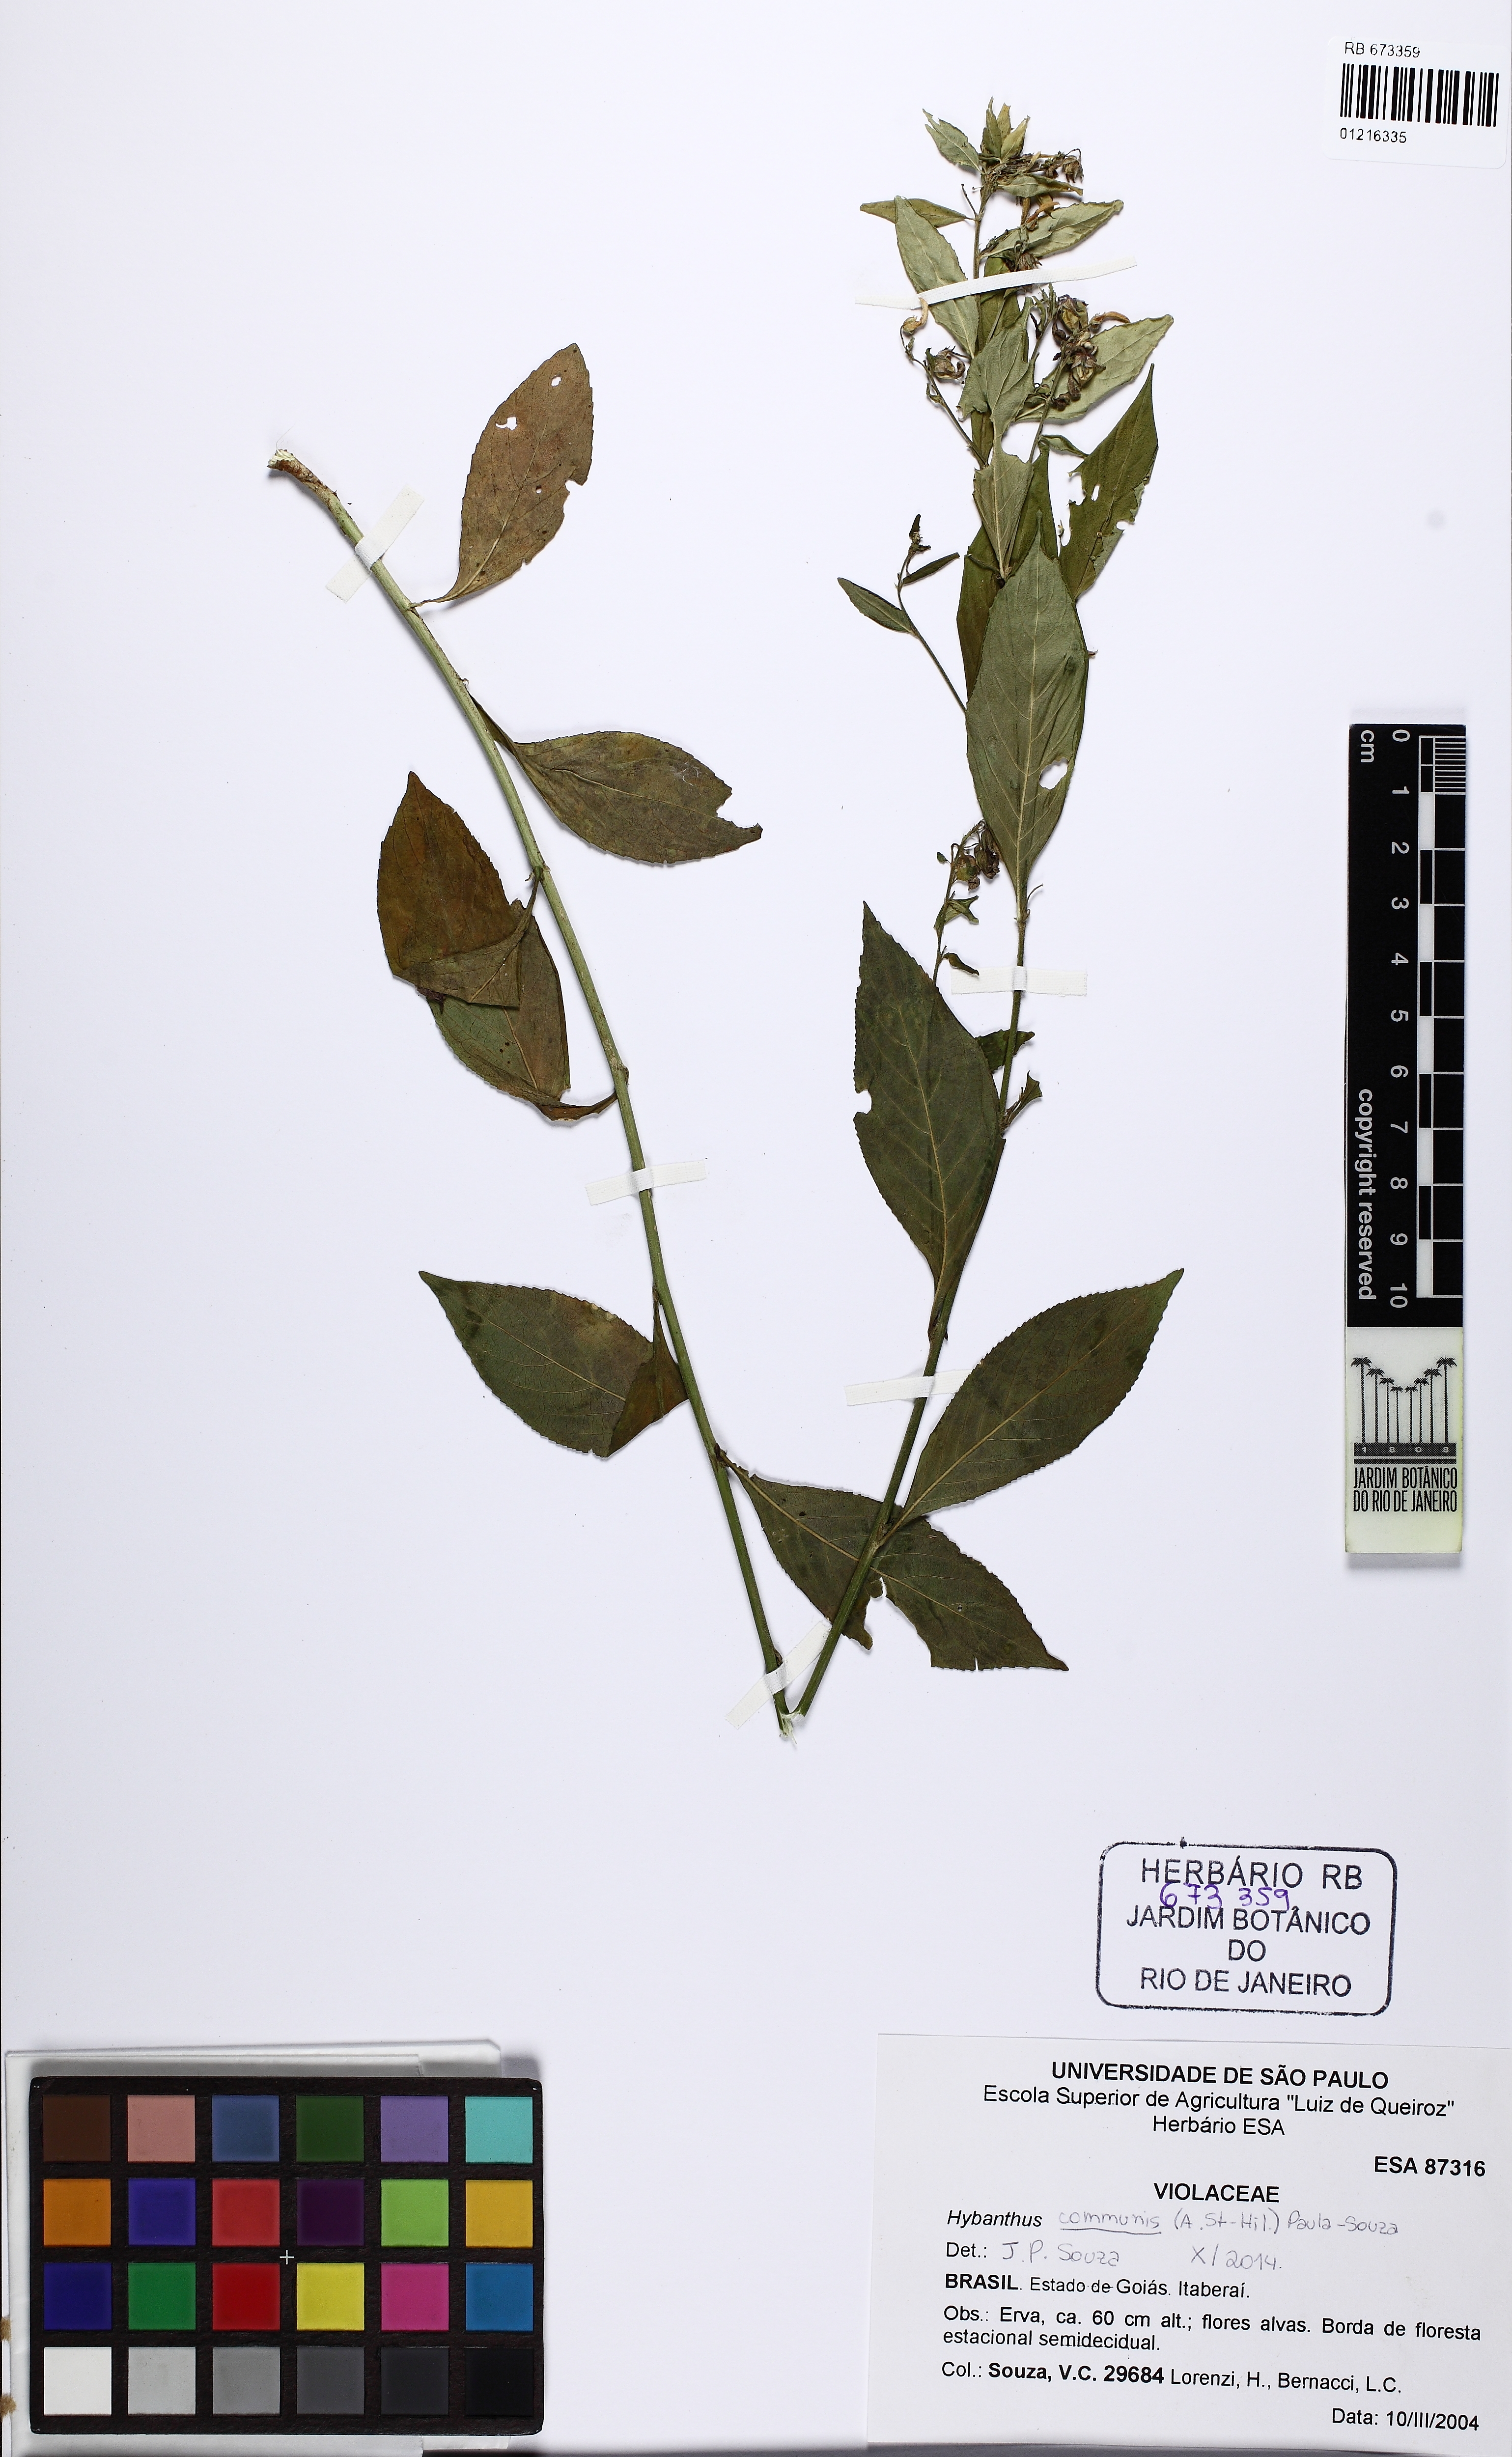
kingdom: Plantae
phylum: Tracheophyta
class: Magnoliopsida
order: Malpighiales
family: Violaceae
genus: Pombalia
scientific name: Pombalia communis
